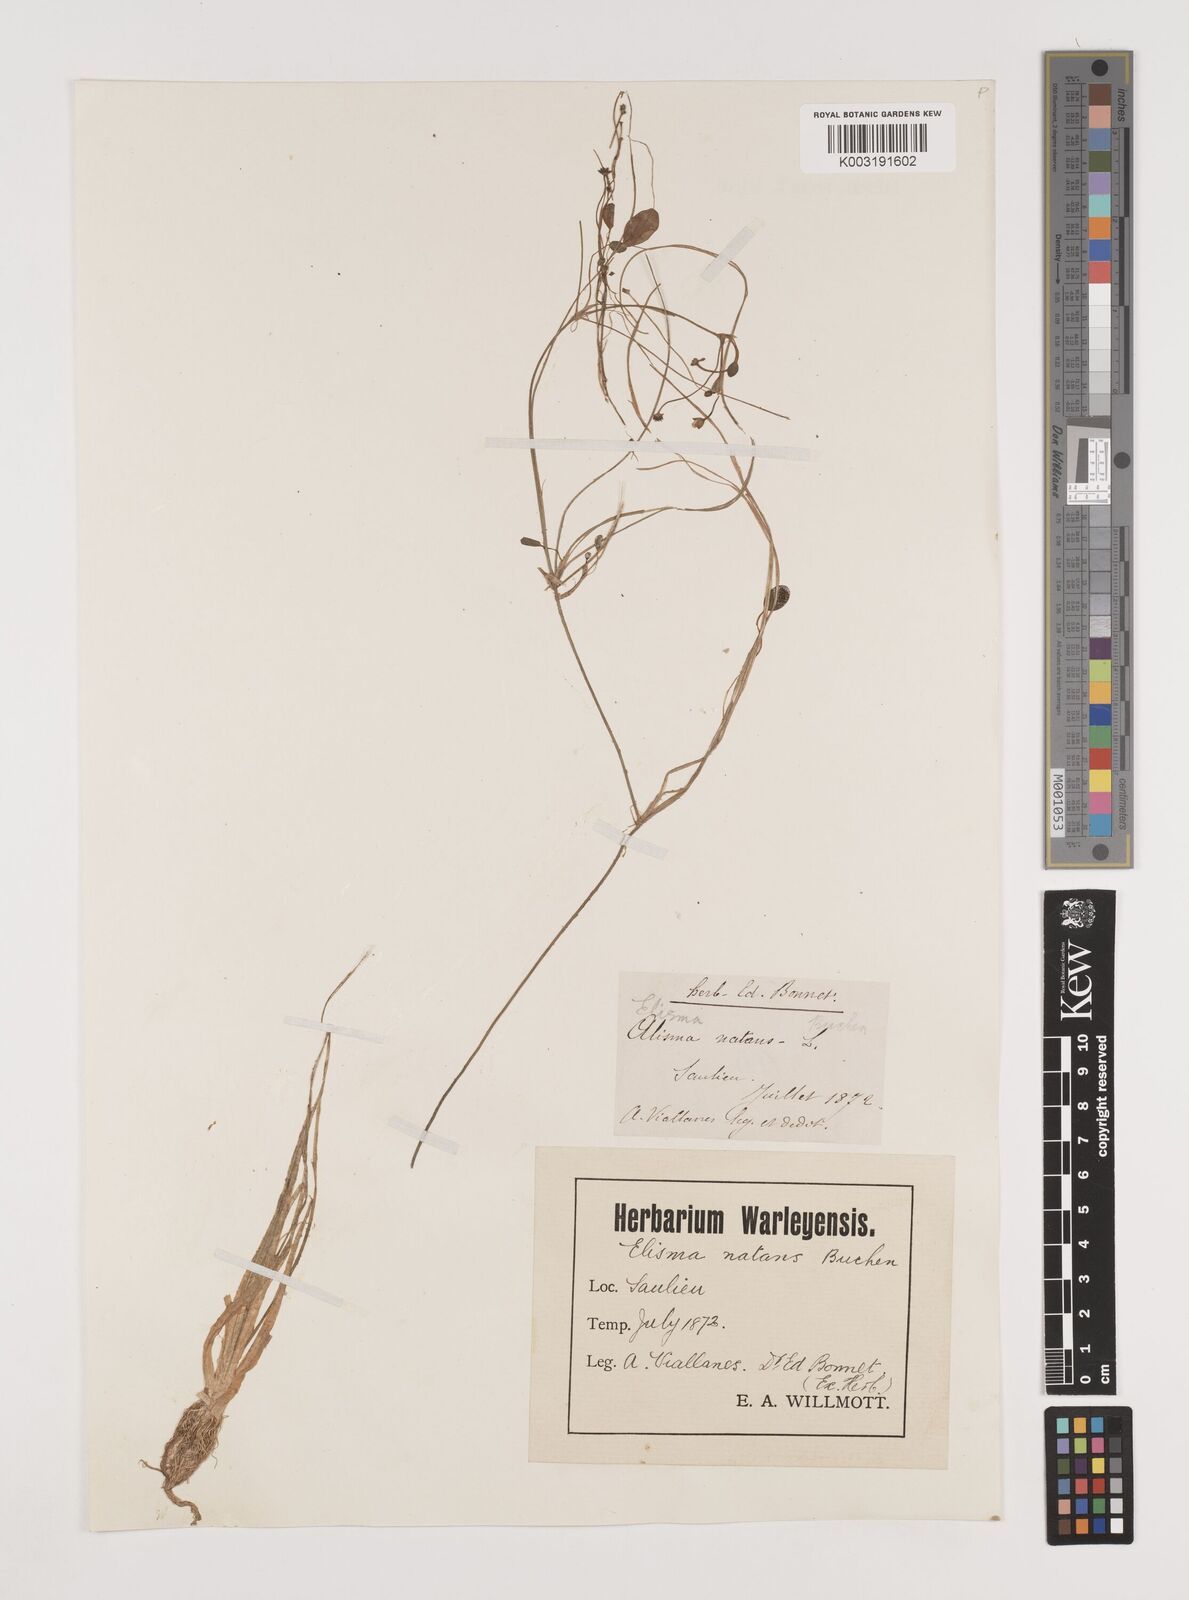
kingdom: Plantae
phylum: Tracheophyta
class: Liliopsida
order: Alismatales
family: Alismataceae
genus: Luronium
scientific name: Luronium natans
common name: Floating water-plantain
